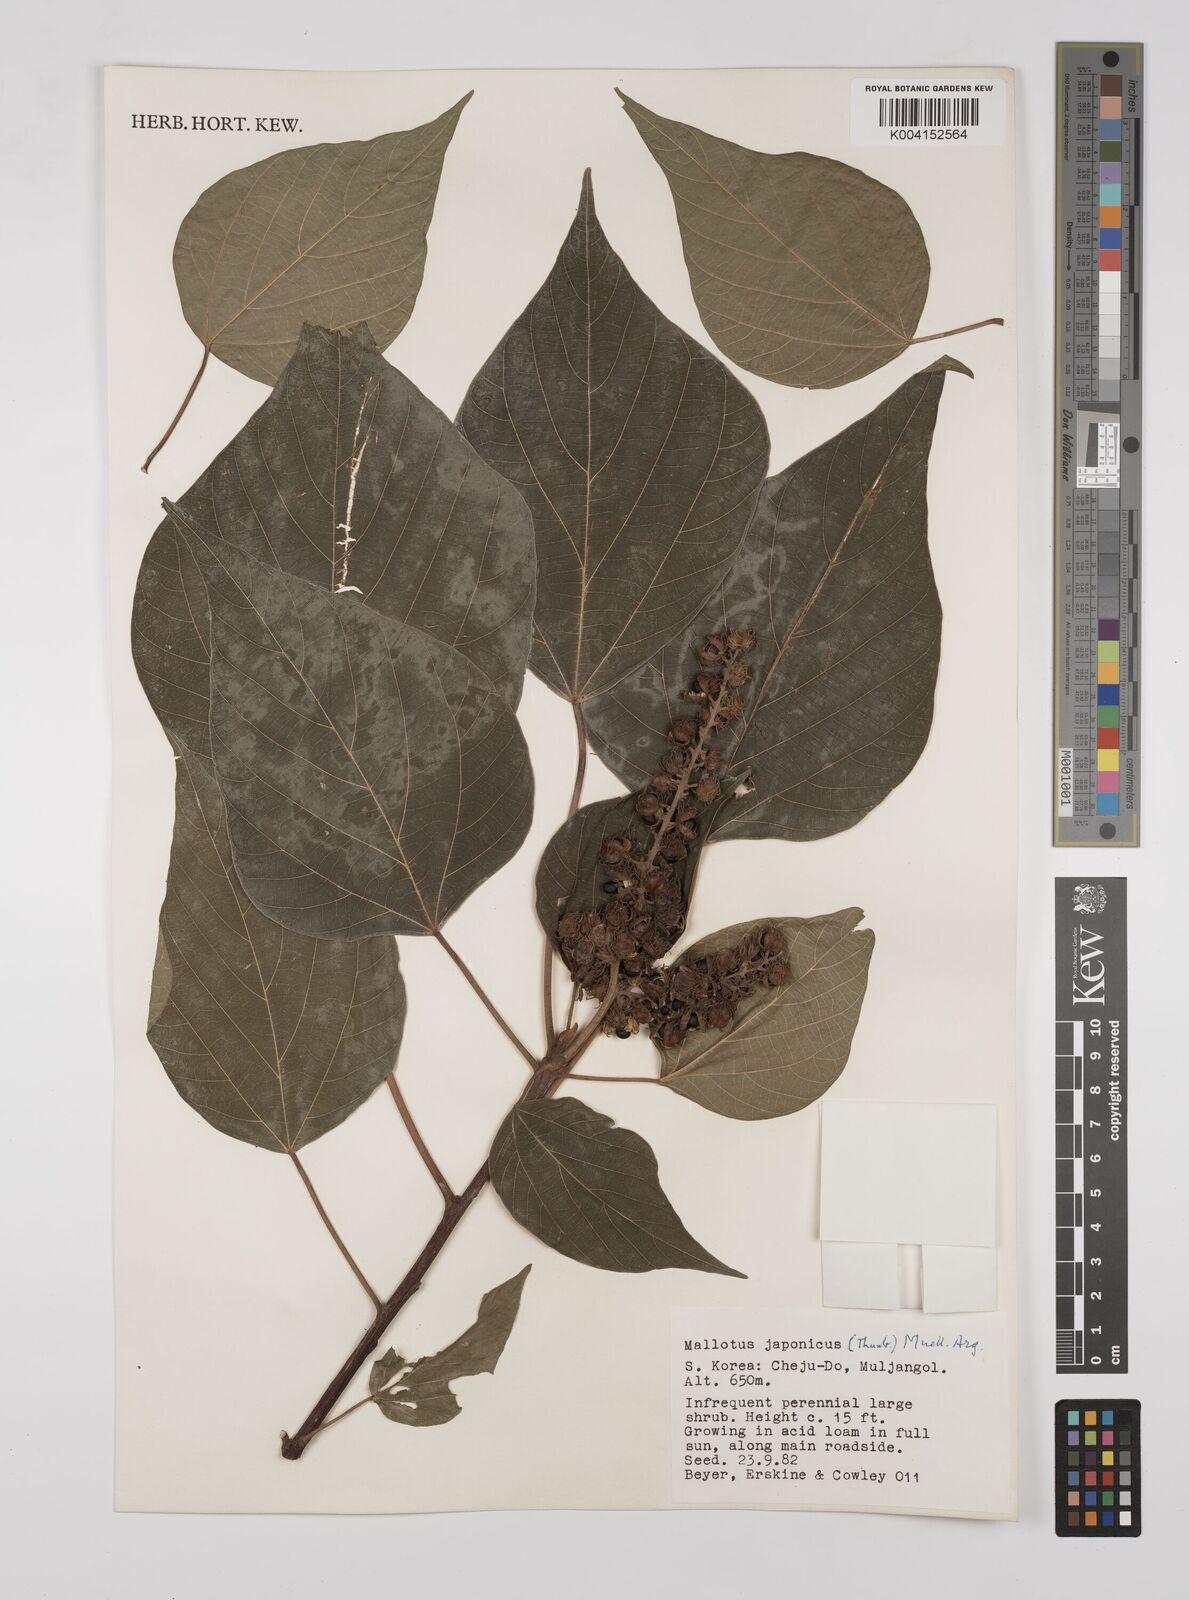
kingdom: Plantae
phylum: Tracheophyta
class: Magnoliopsida
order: Malpighiales
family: Euphorbiaceae
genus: Mallotus
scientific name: Mallotus japonicus
